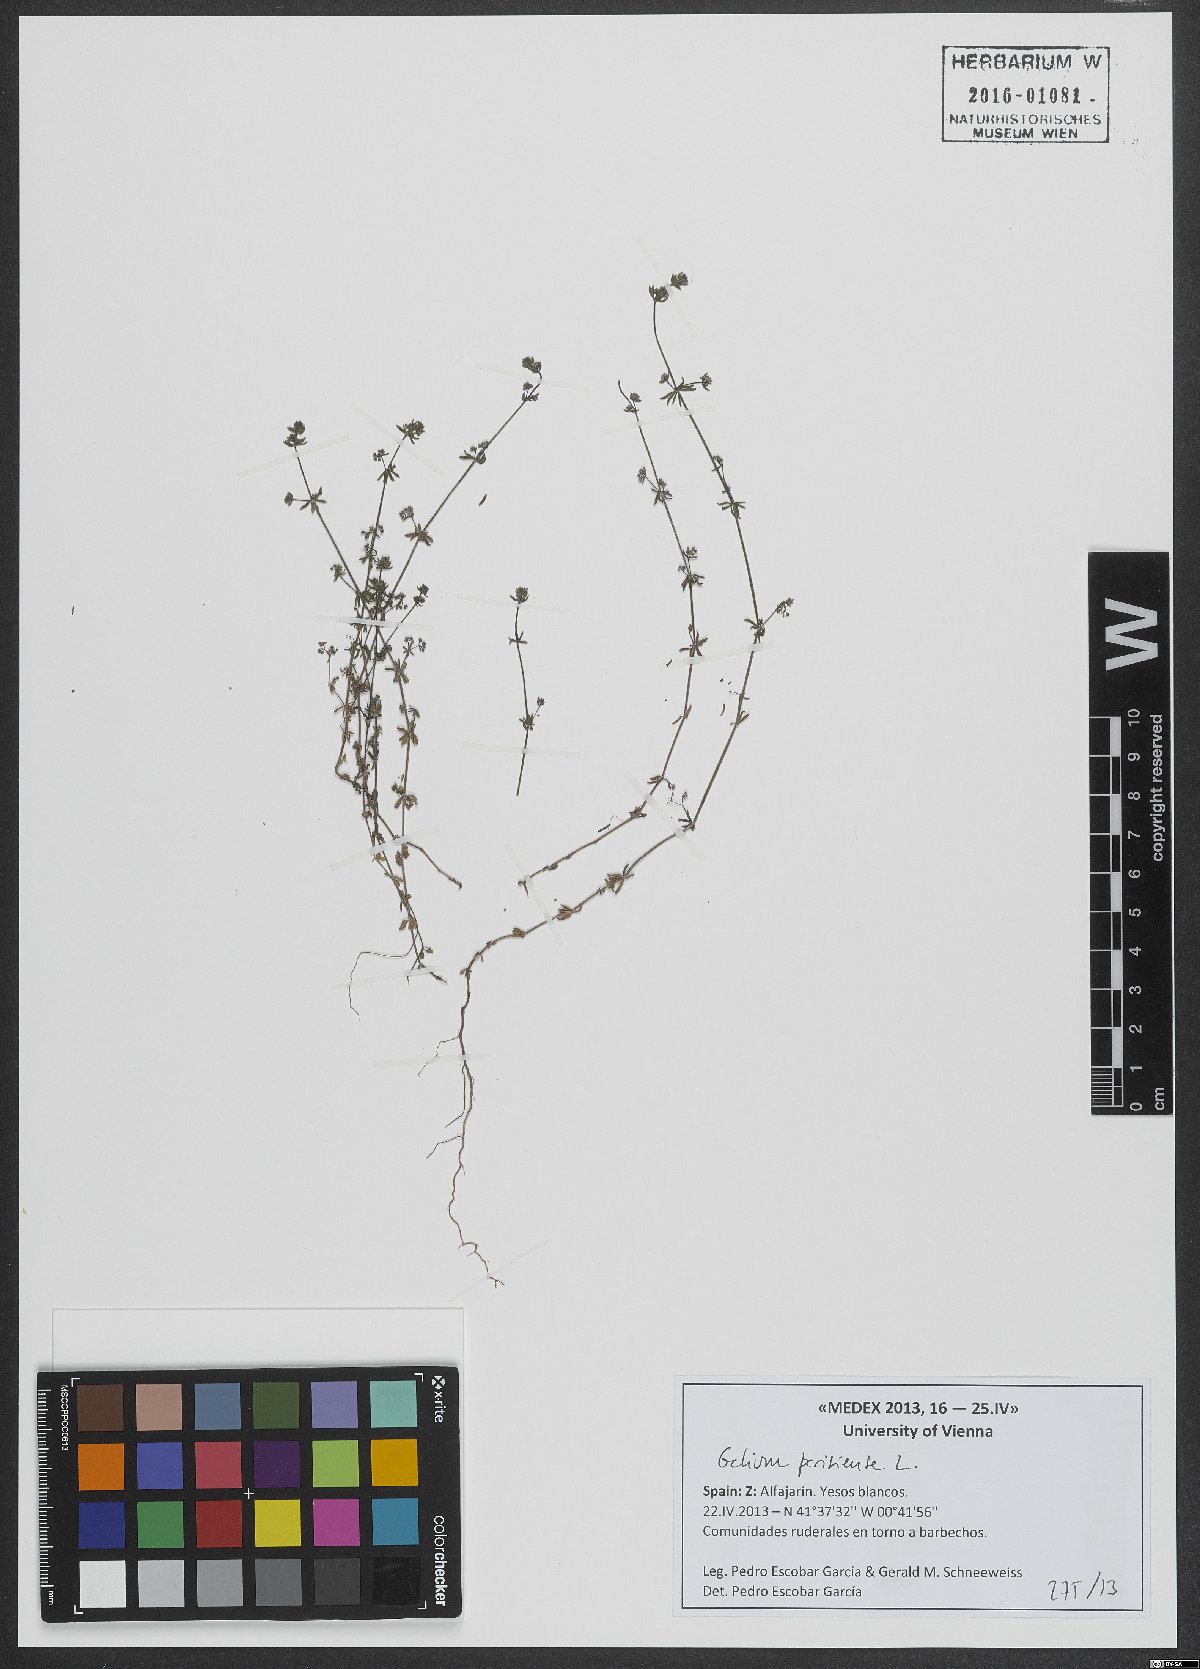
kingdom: Plantae
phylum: Tracheophyta
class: Magnoliopsida
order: Gentianales
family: Rubiaceae
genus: Galium
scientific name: Galium parisiense
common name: Wall bedstraw
